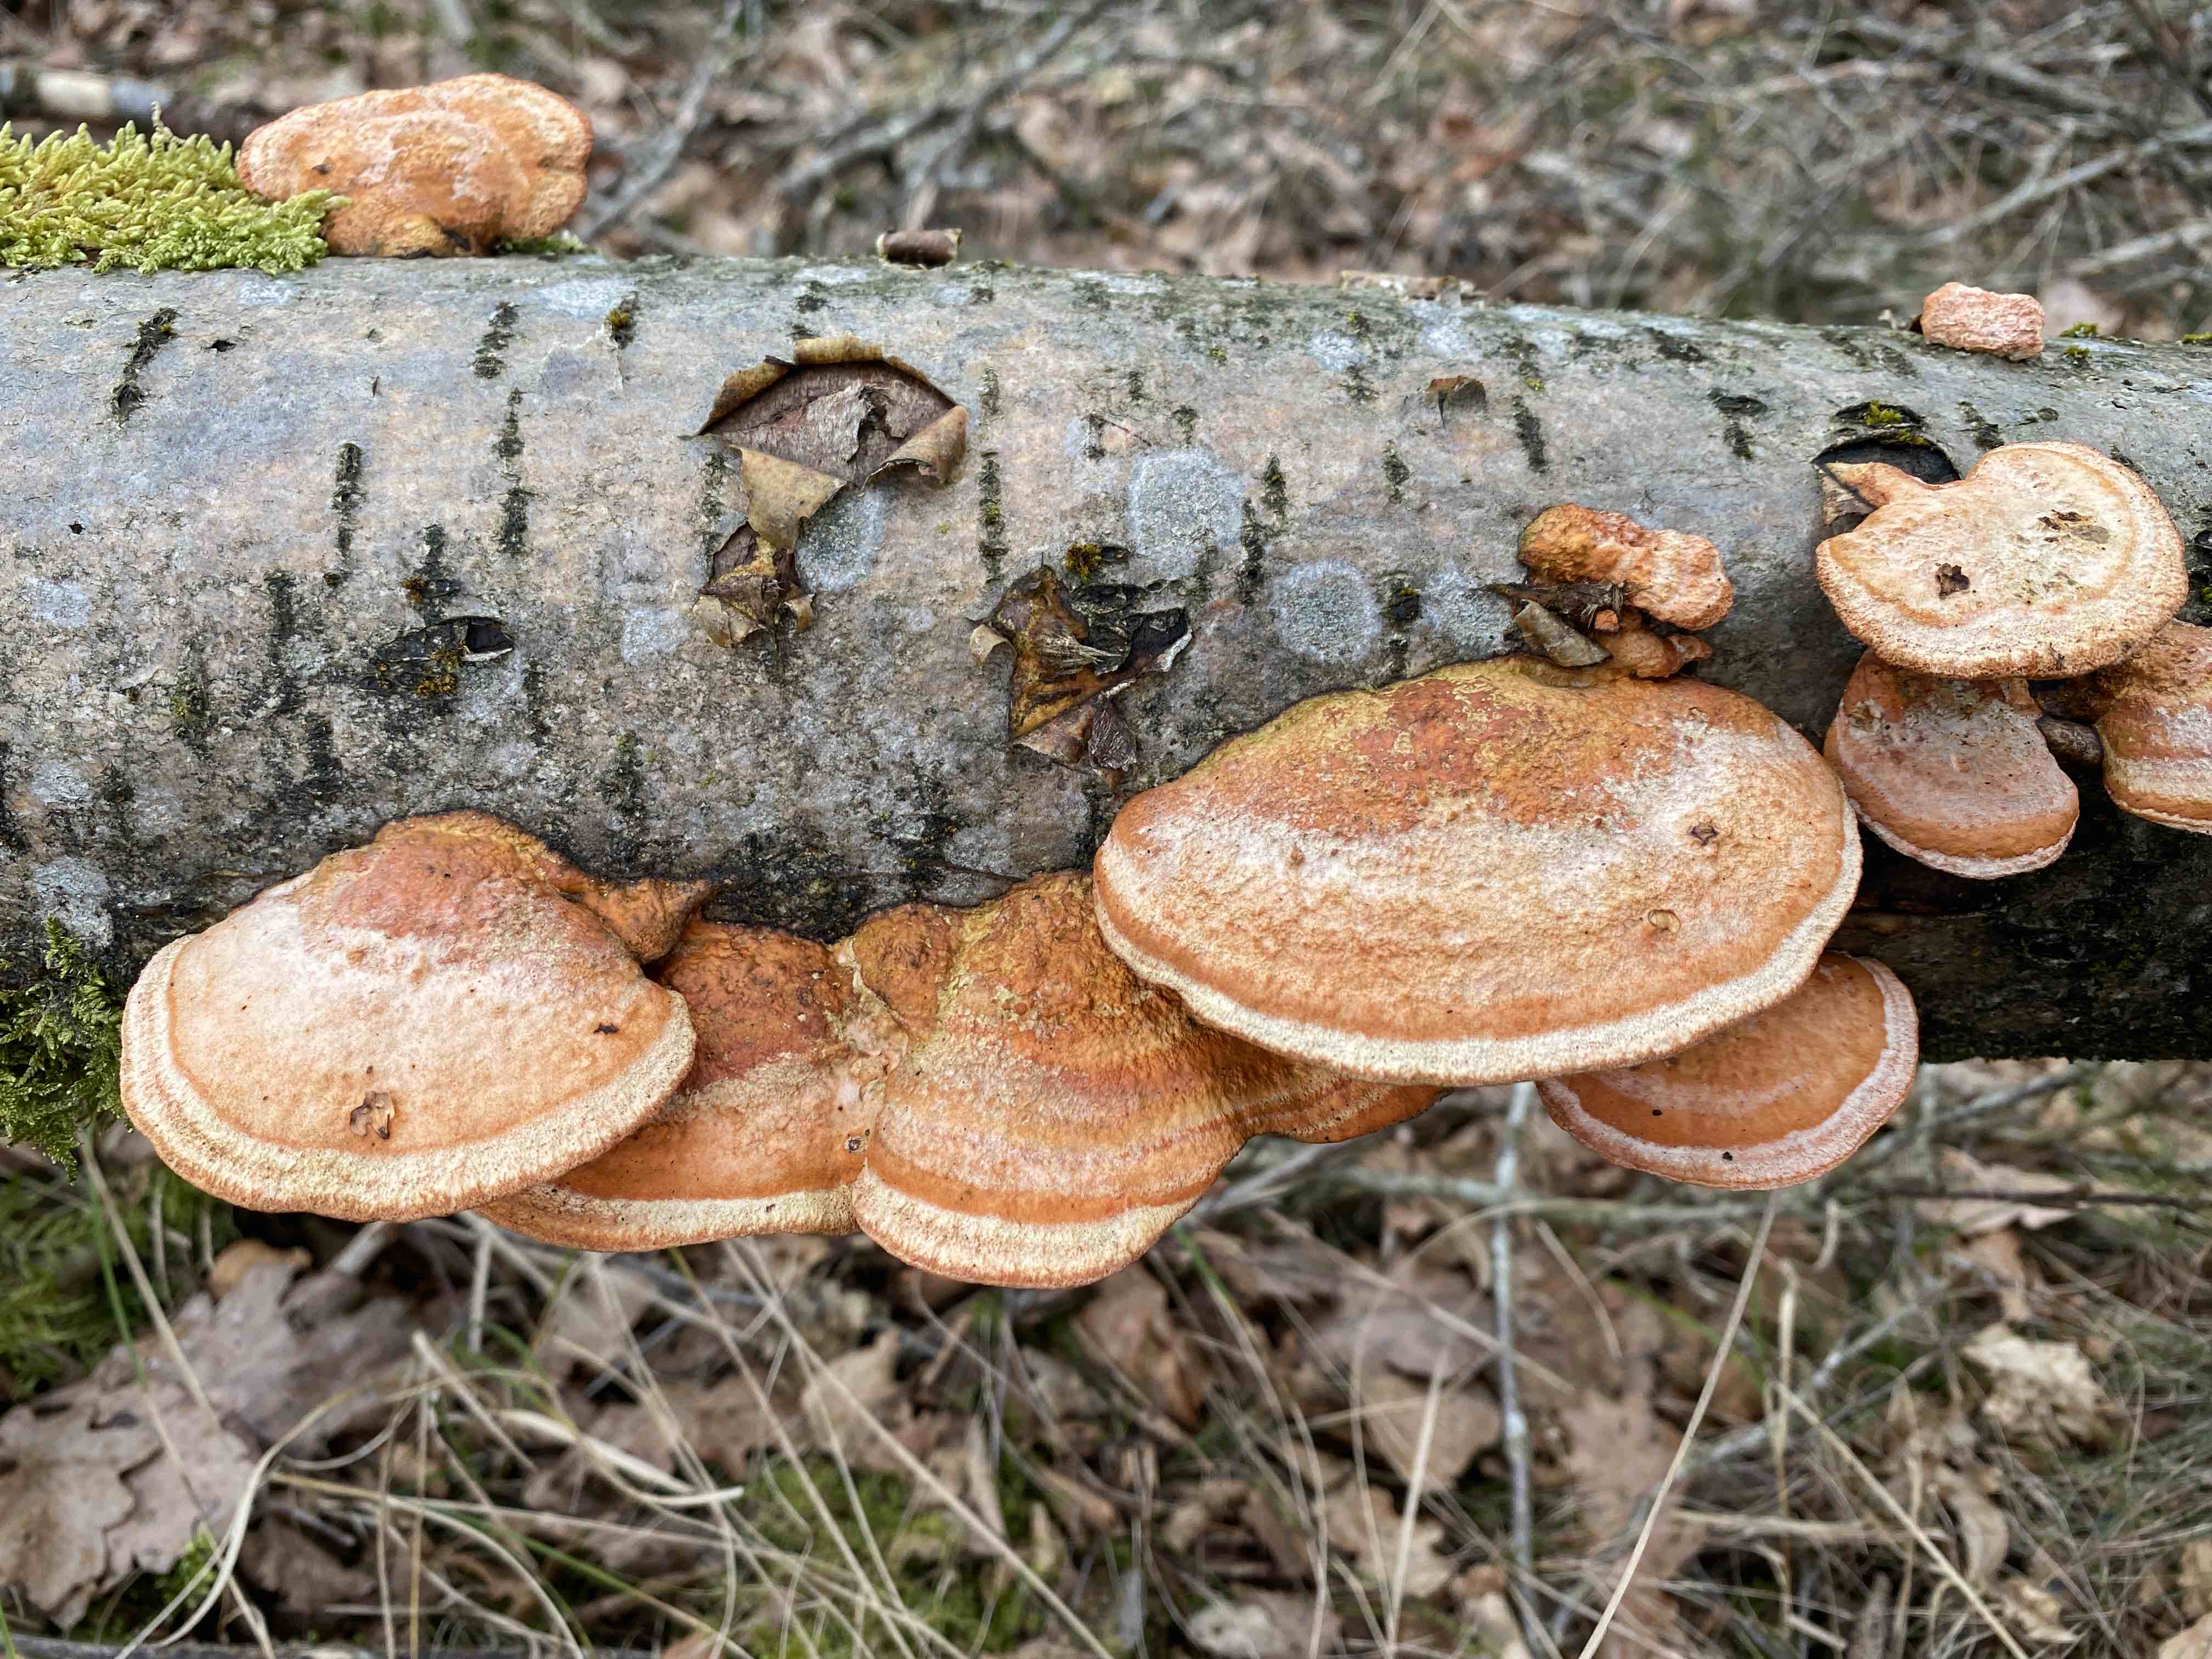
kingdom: Fungi
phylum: Basidiomycota
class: Agaricomycetes
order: Polyporales
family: Polyporaceae
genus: Trametes
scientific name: Trametes cinnabarina
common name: cinnoberporesvamp
